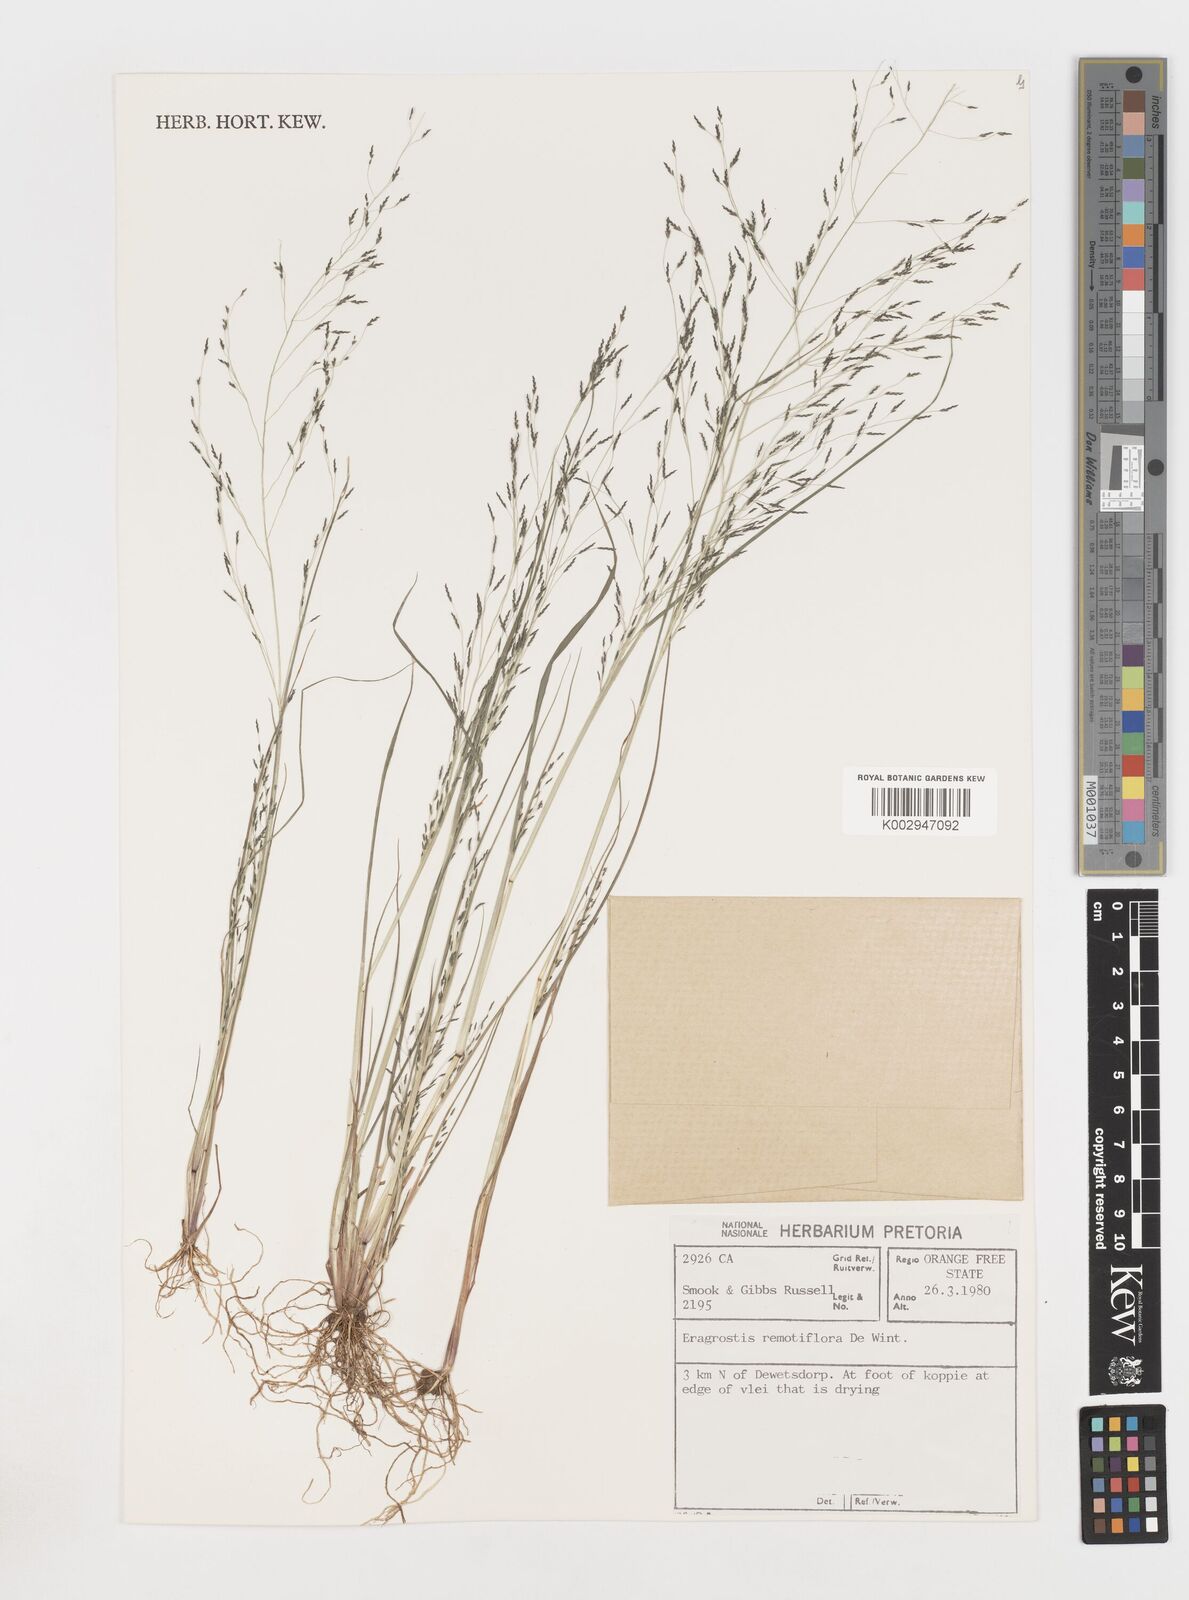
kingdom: Plantae
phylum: Tracheophyta
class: Liliopsida
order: Poales
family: Poaceae
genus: Eragrostis
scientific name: Eragrostis remotiflora
